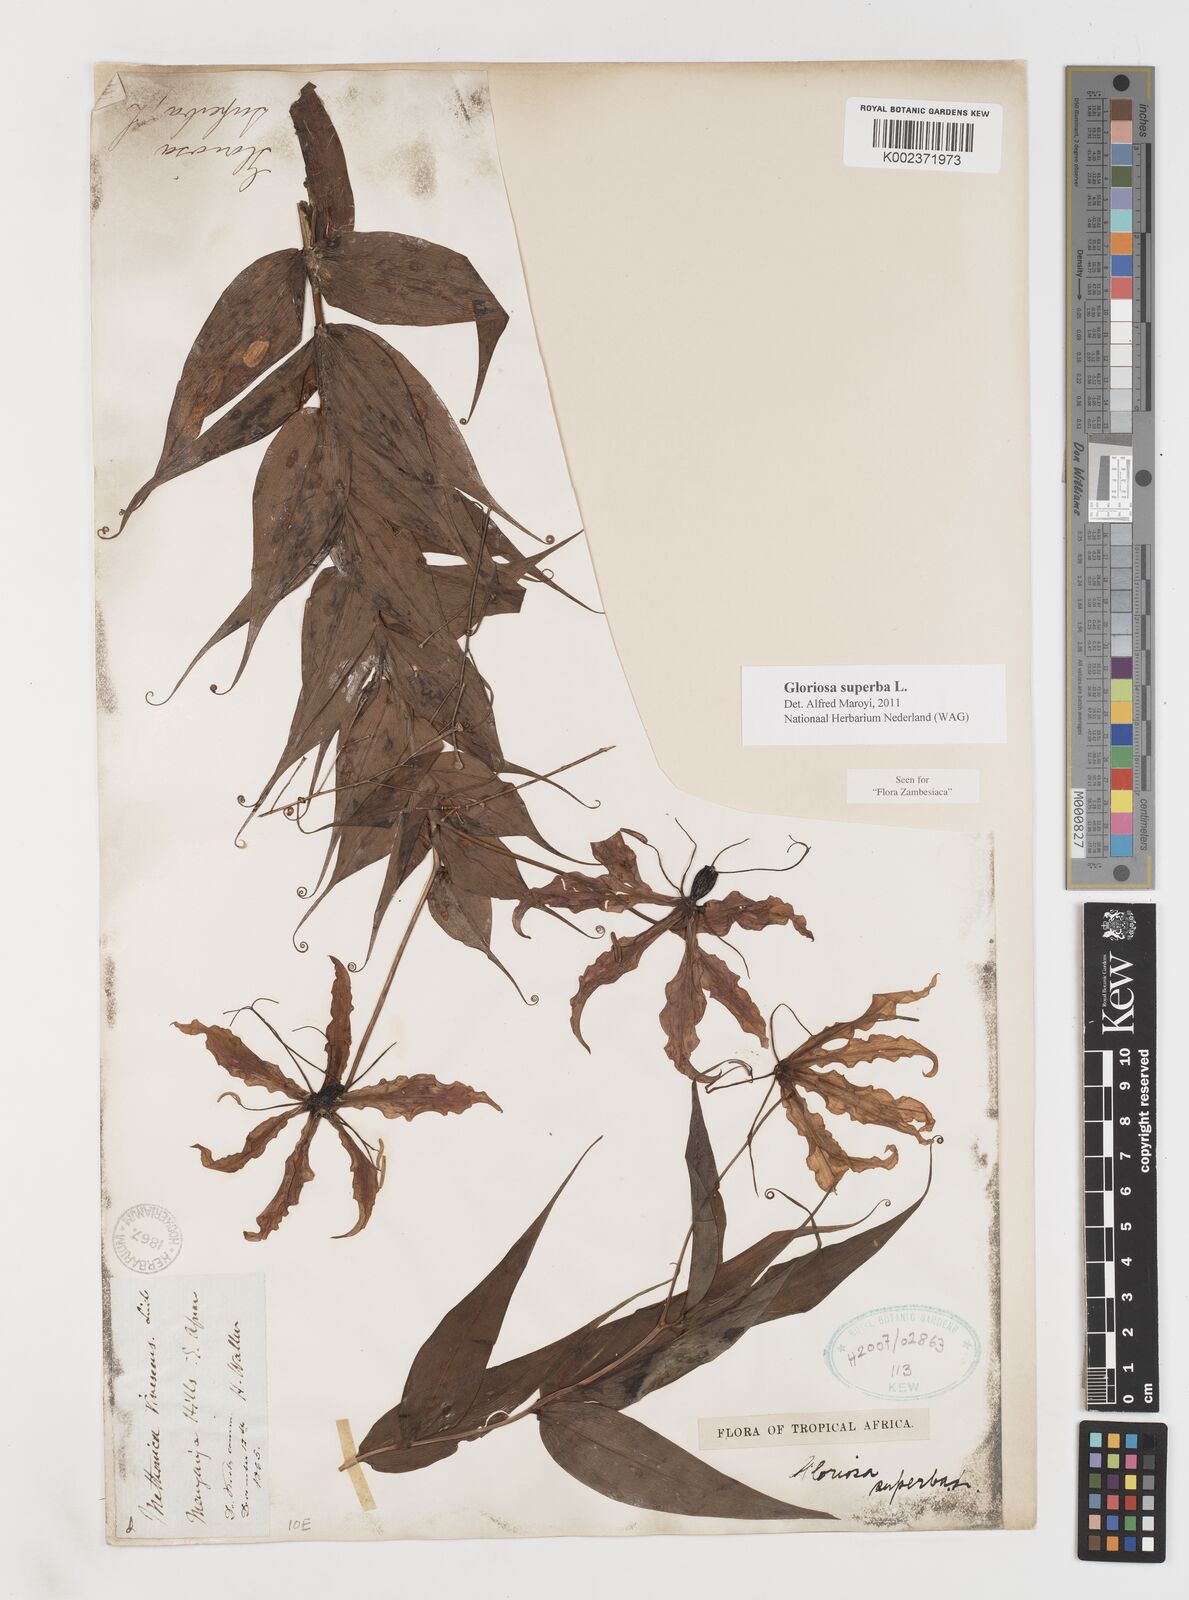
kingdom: Plantae
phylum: Tracheophyta
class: Liliopsida
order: Liliales
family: Colchicaceae
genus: Gloriosa
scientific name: Gloriosa superba
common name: Flame lily
